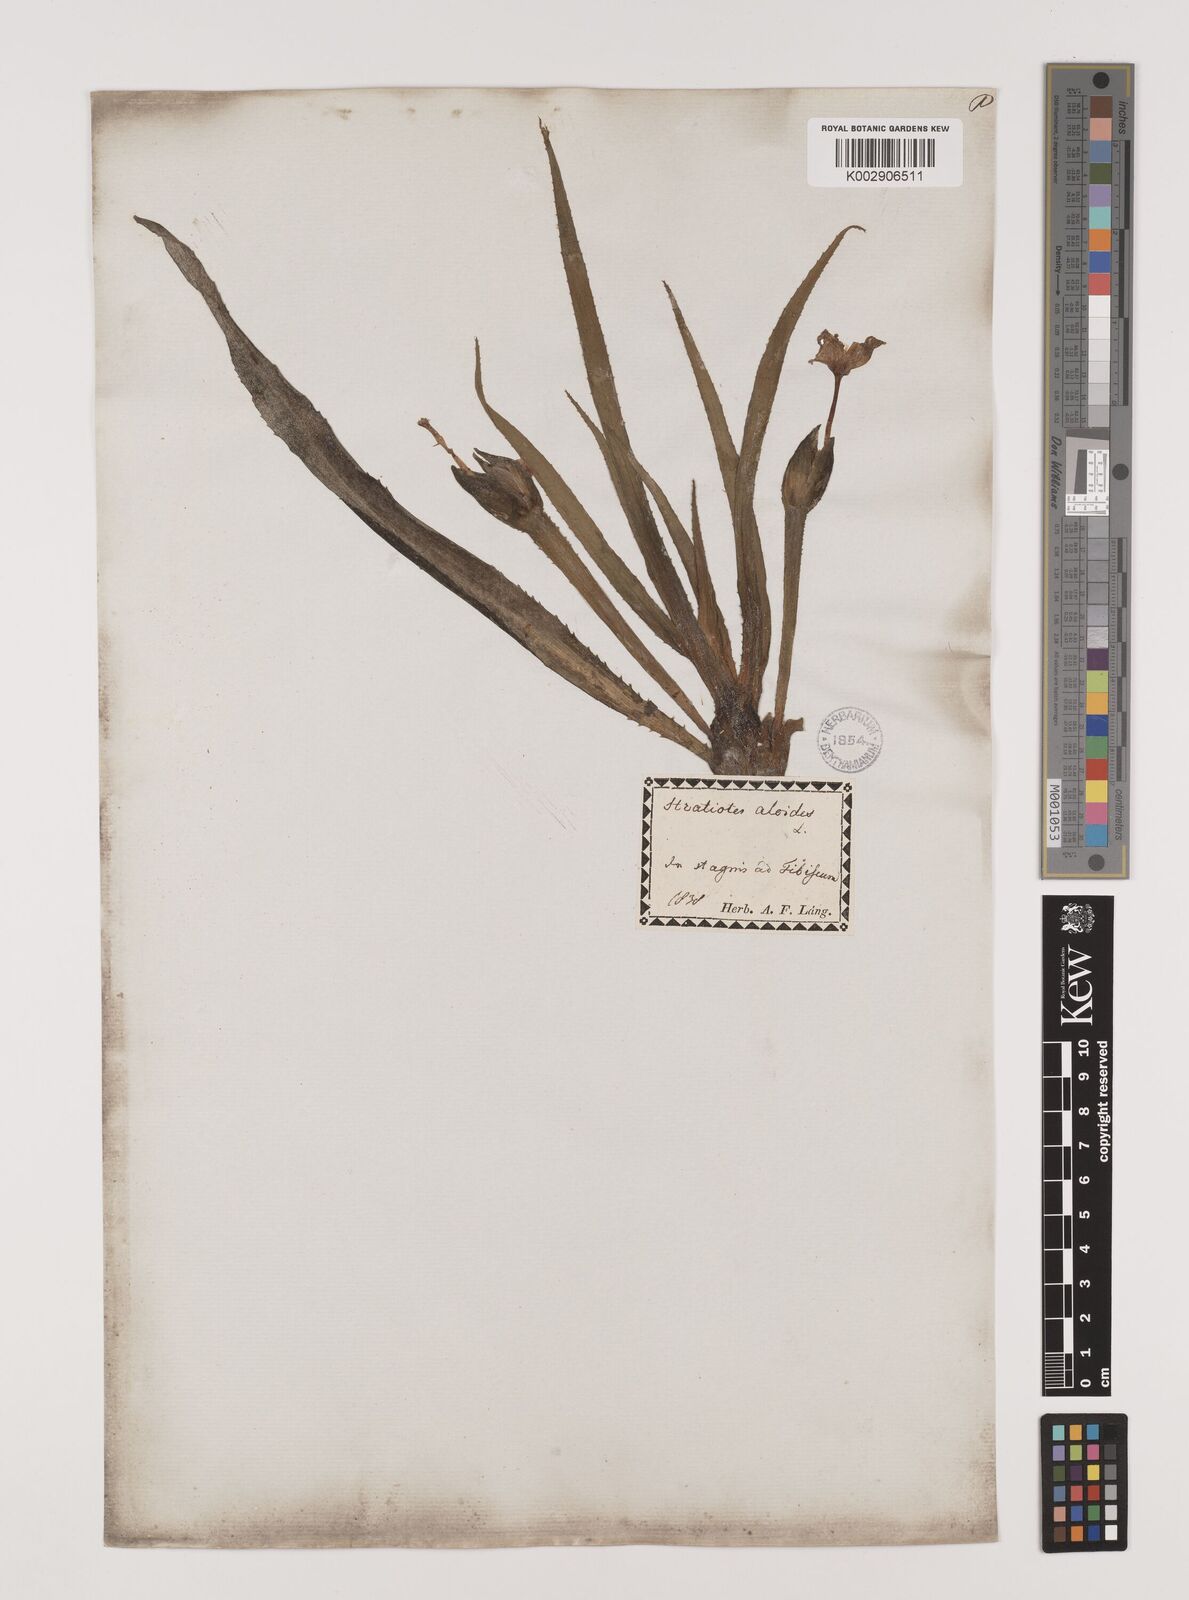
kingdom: Plantae
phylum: Tracheophyta
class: Liliopsida
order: Alismatales
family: Hydrocharitaceae
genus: Stratiotes
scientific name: Stratiotes aloides
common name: Water-soldier
